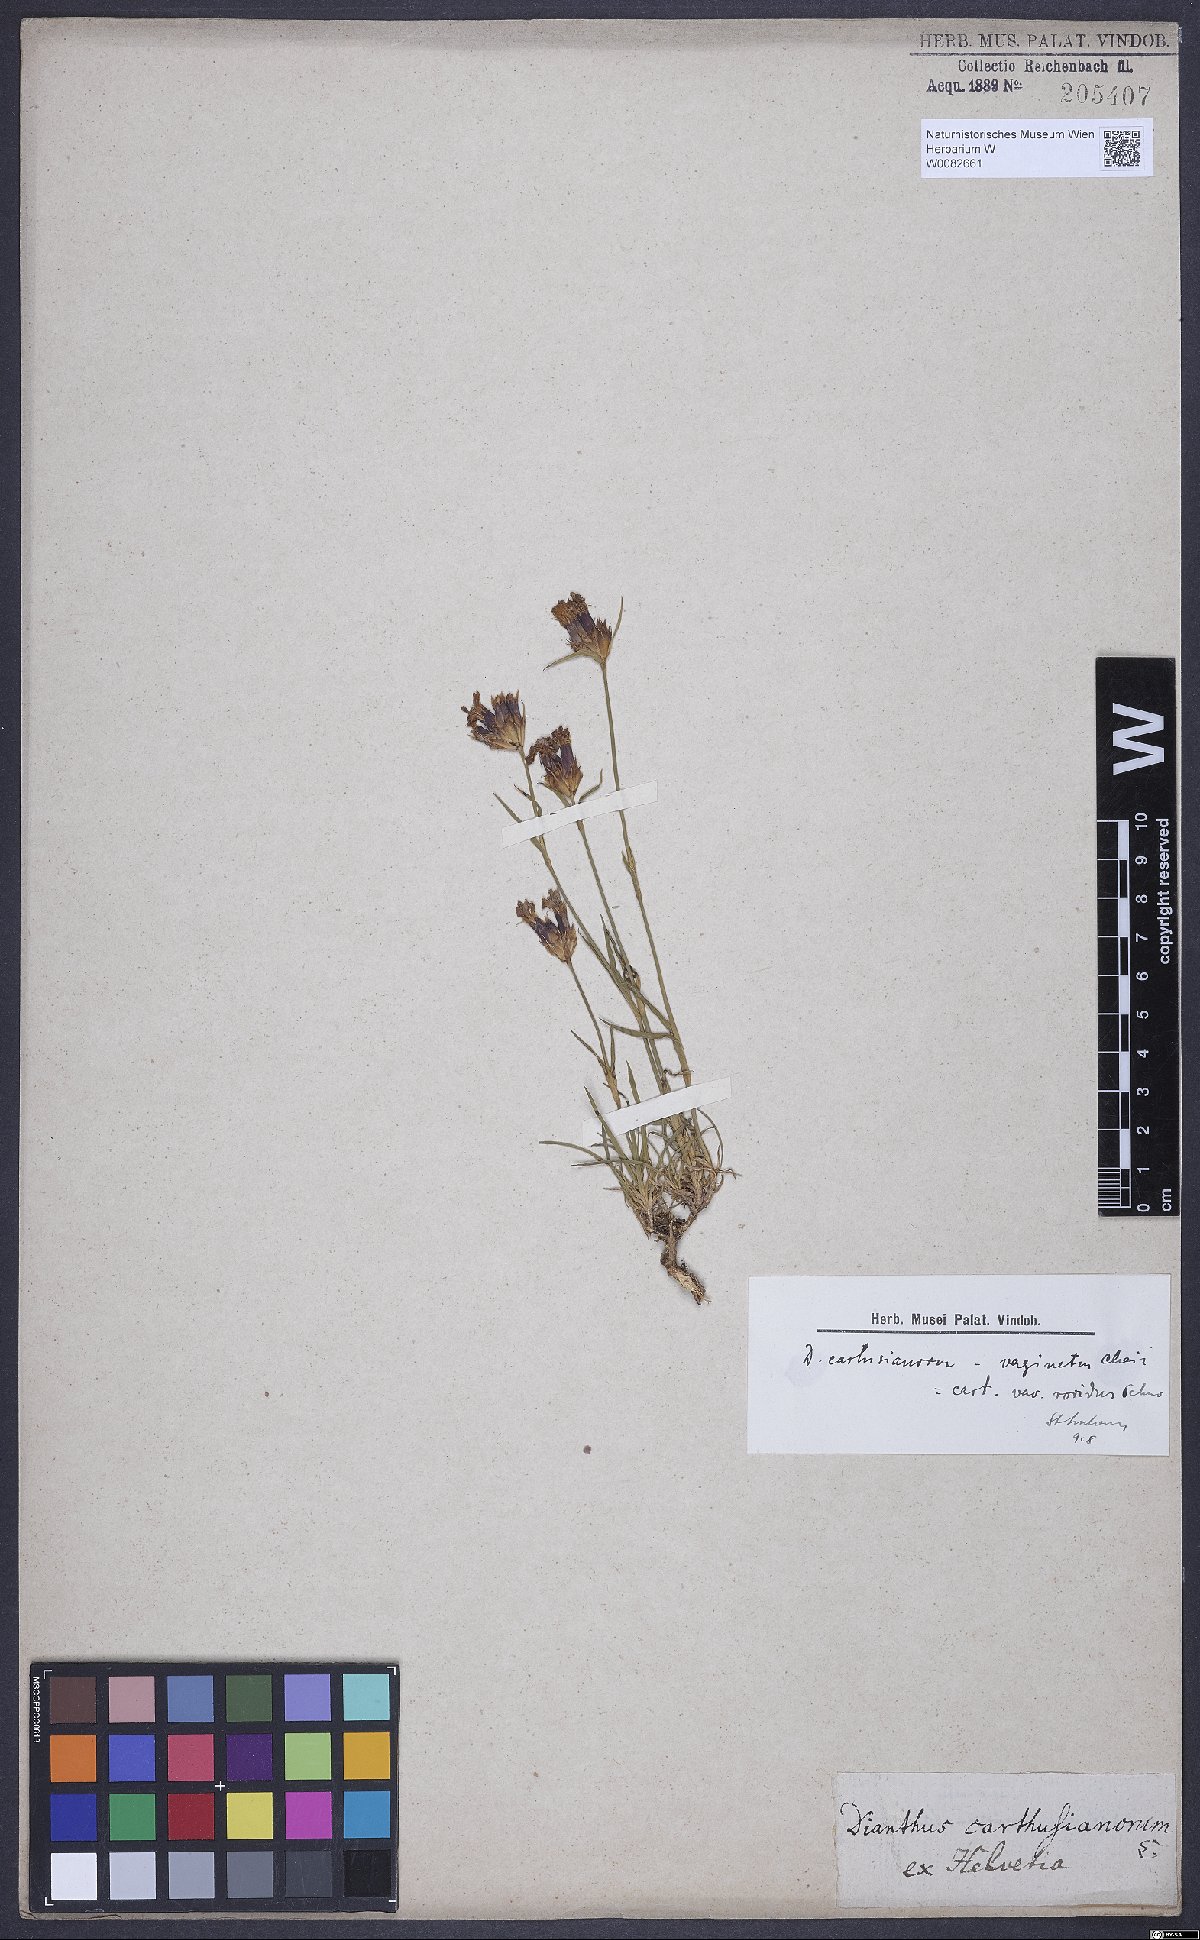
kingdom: Plantae
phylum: Tracheophyta
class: Magnoliopsida
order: Caryophyllales
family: Caryophyllaceae
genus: Dianthus
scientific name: Dianthus carthusianorum
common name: Carthusian pink
